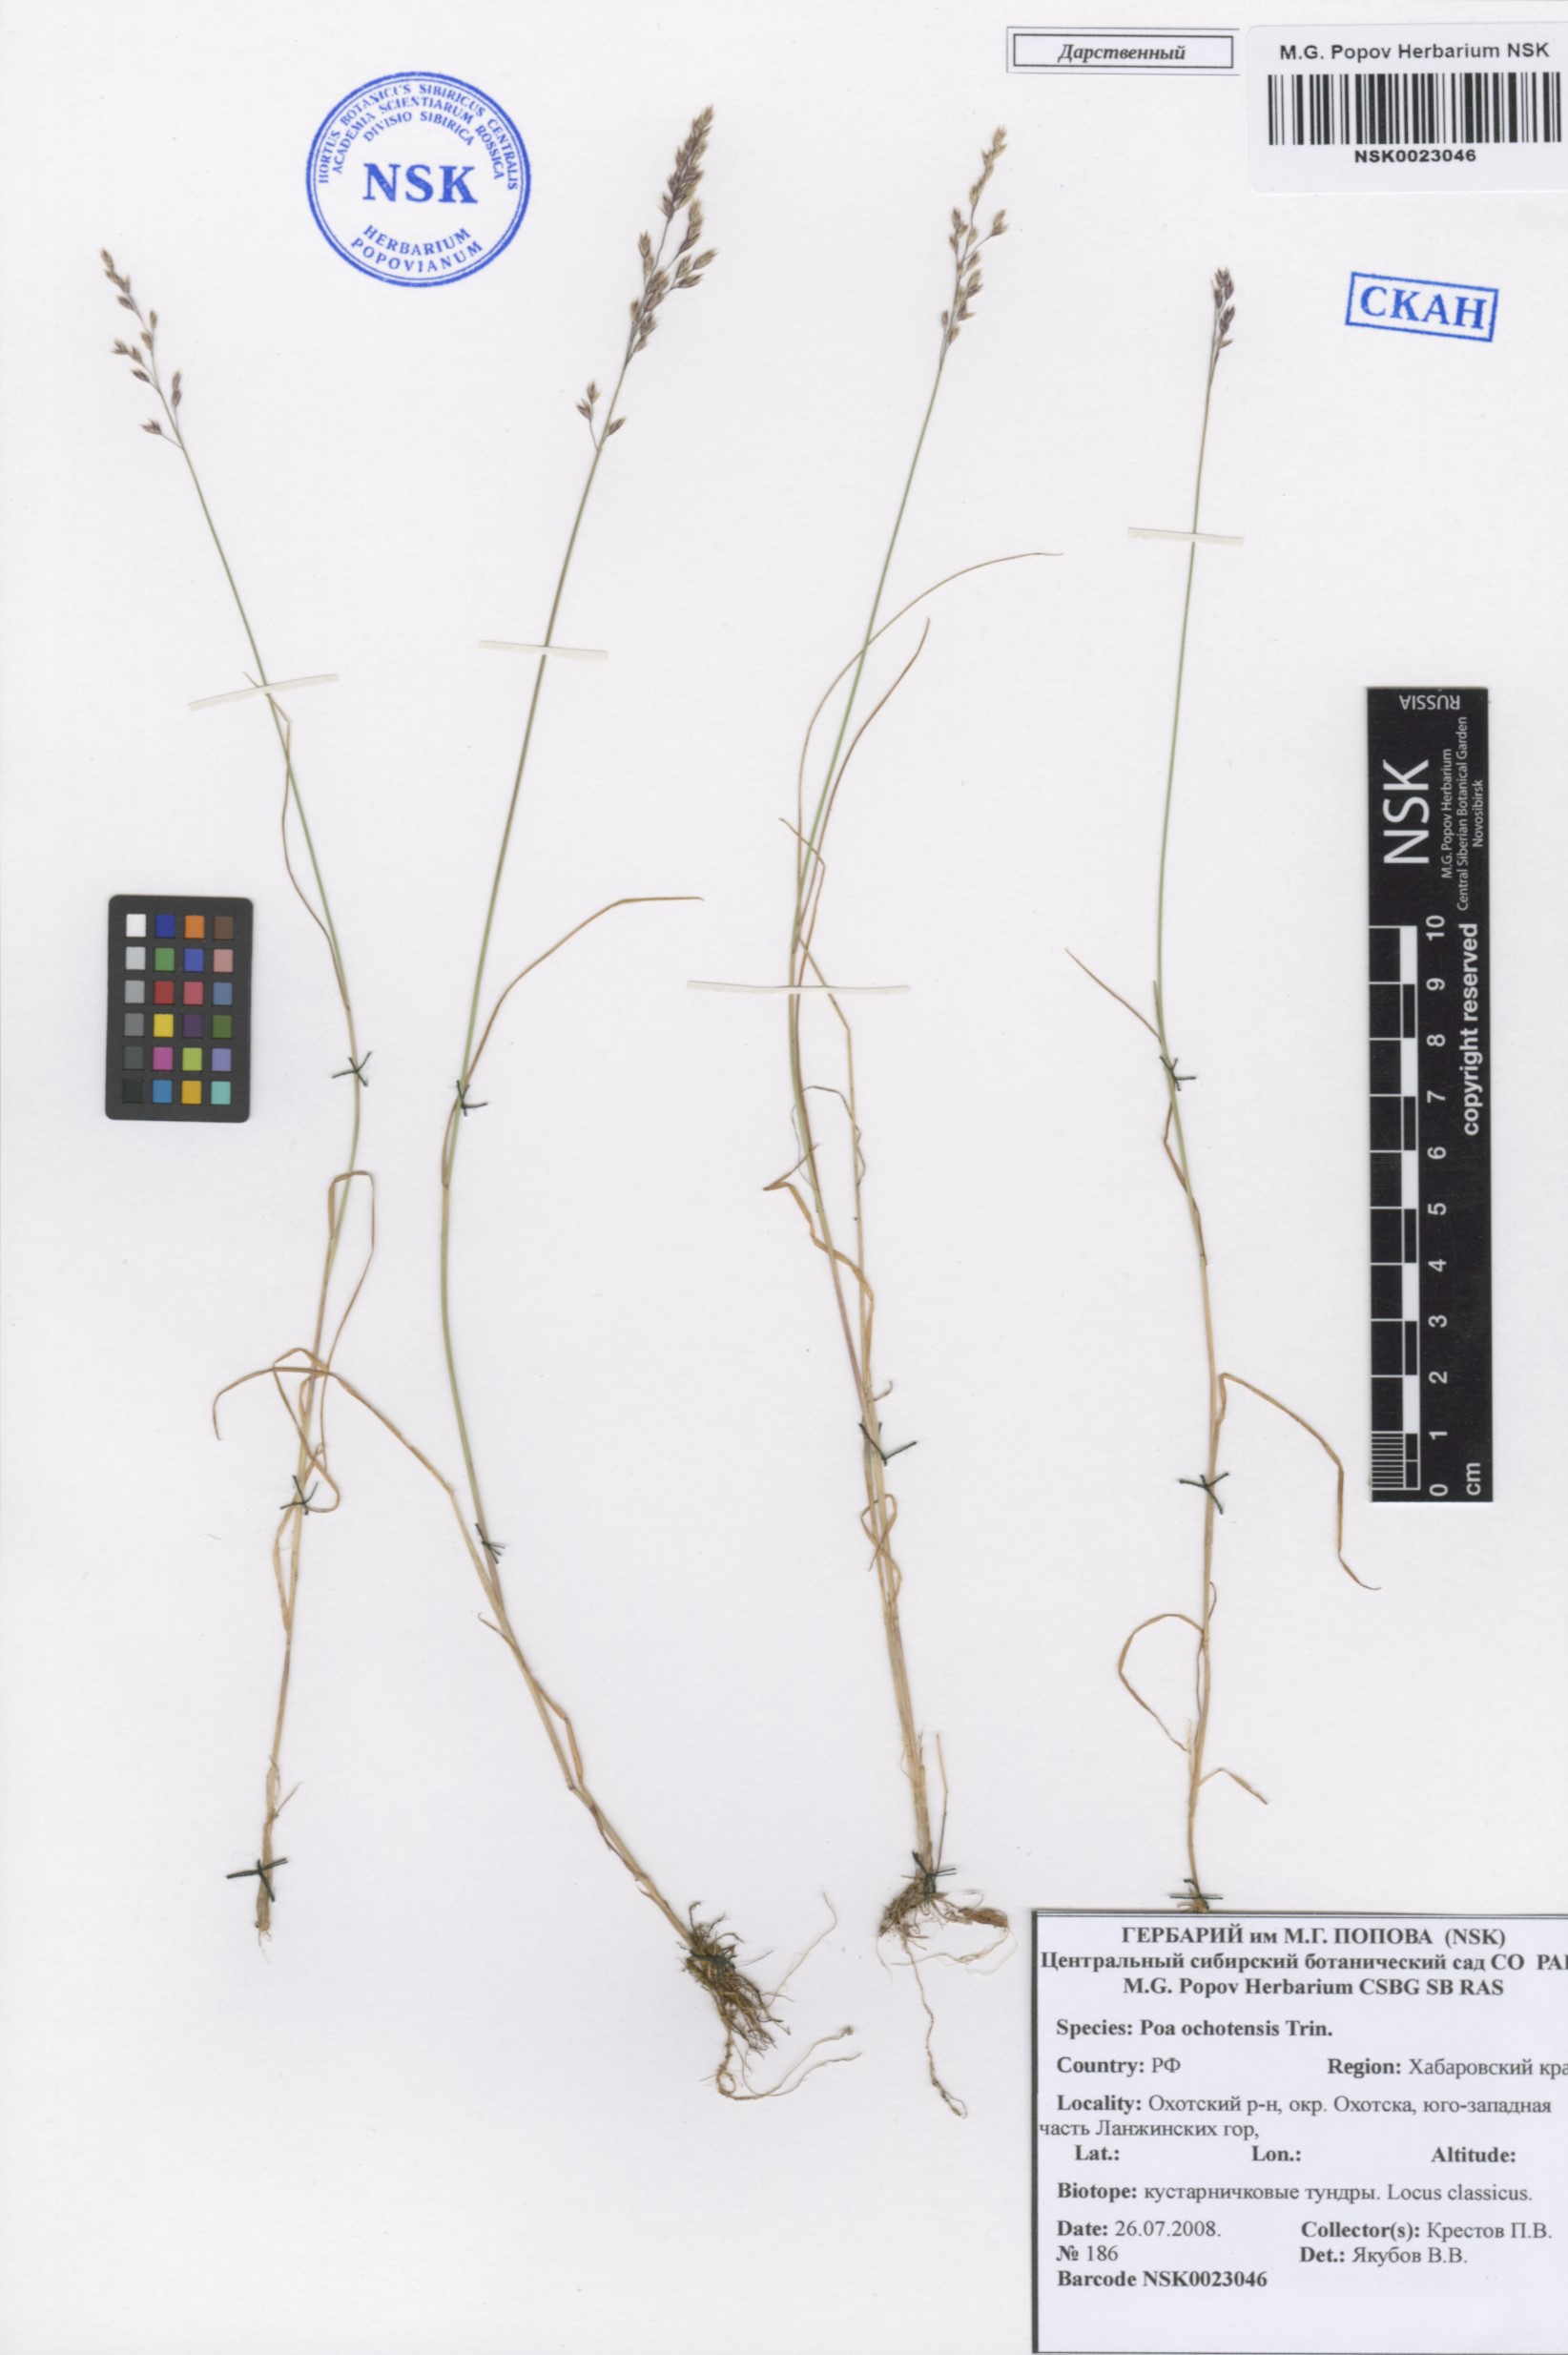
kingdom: Plantae
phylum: Tracheophyta
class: Liliopsida
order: Poales
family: Poaceae
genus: Poa
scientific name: Poa versicolor
